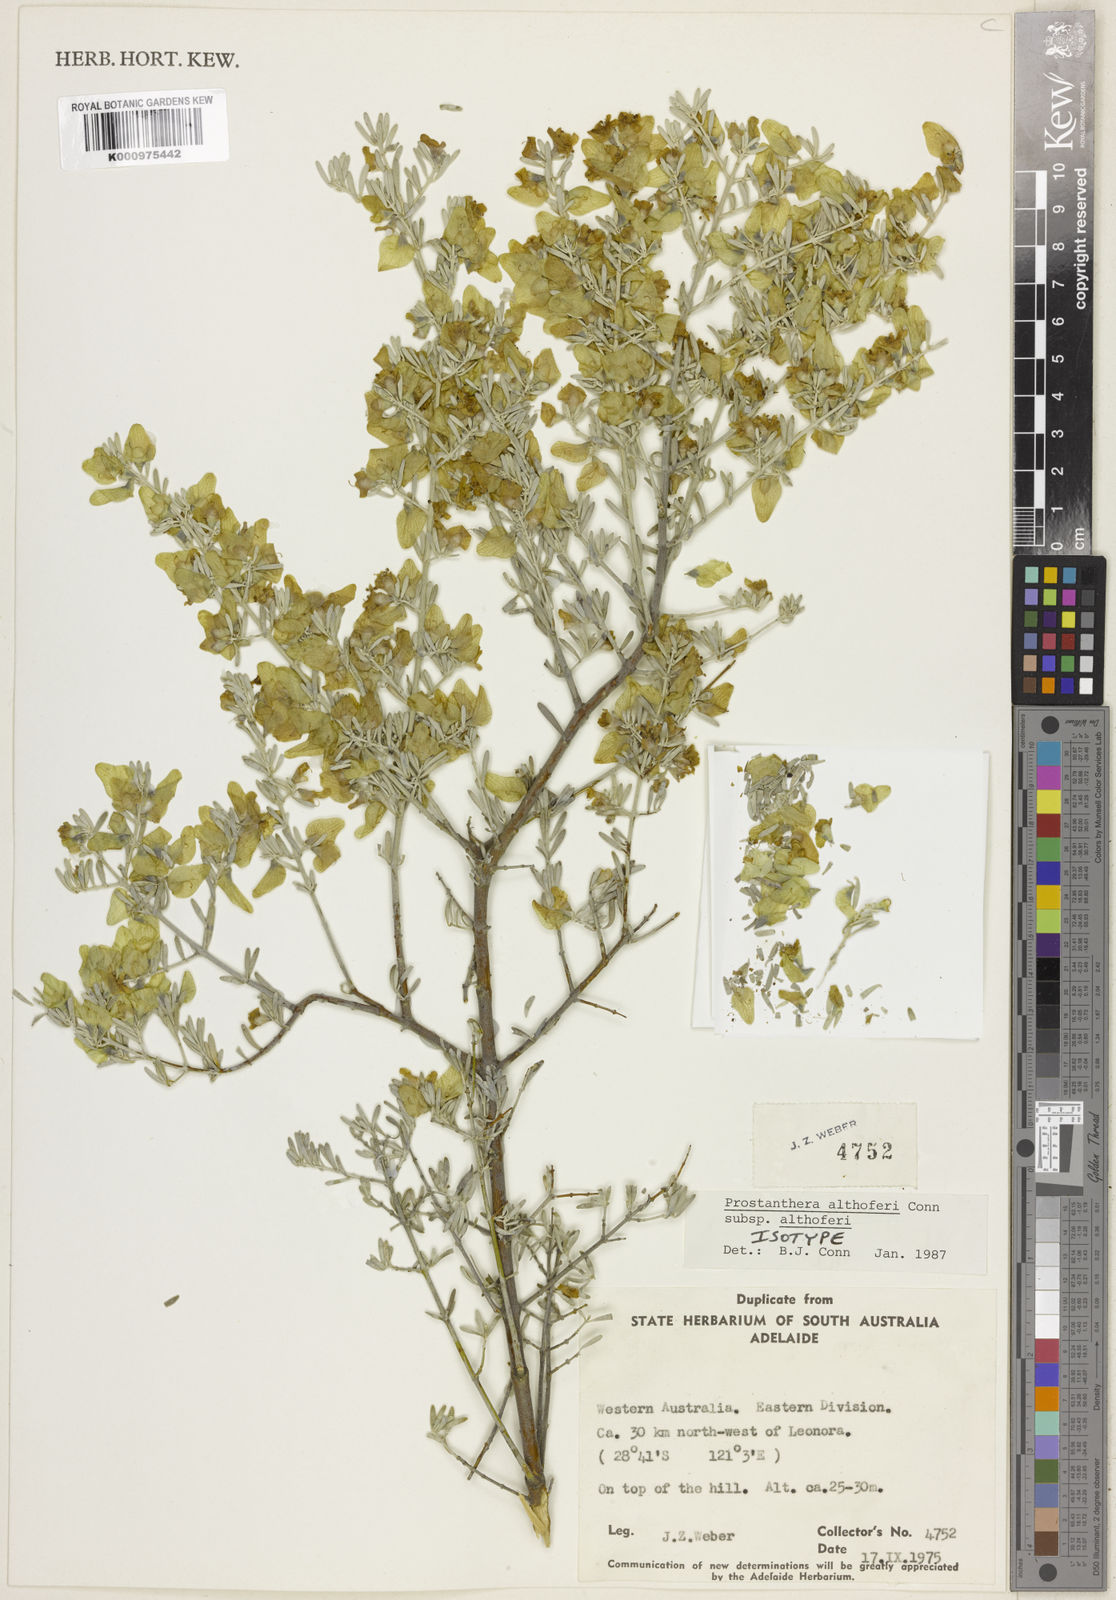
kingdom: Plantae
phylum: Tracheophyta
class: Magnoliopsida
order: Lamiales
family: Lamiaceae
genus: Prostanthera
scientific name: Prostanthera althoferi
